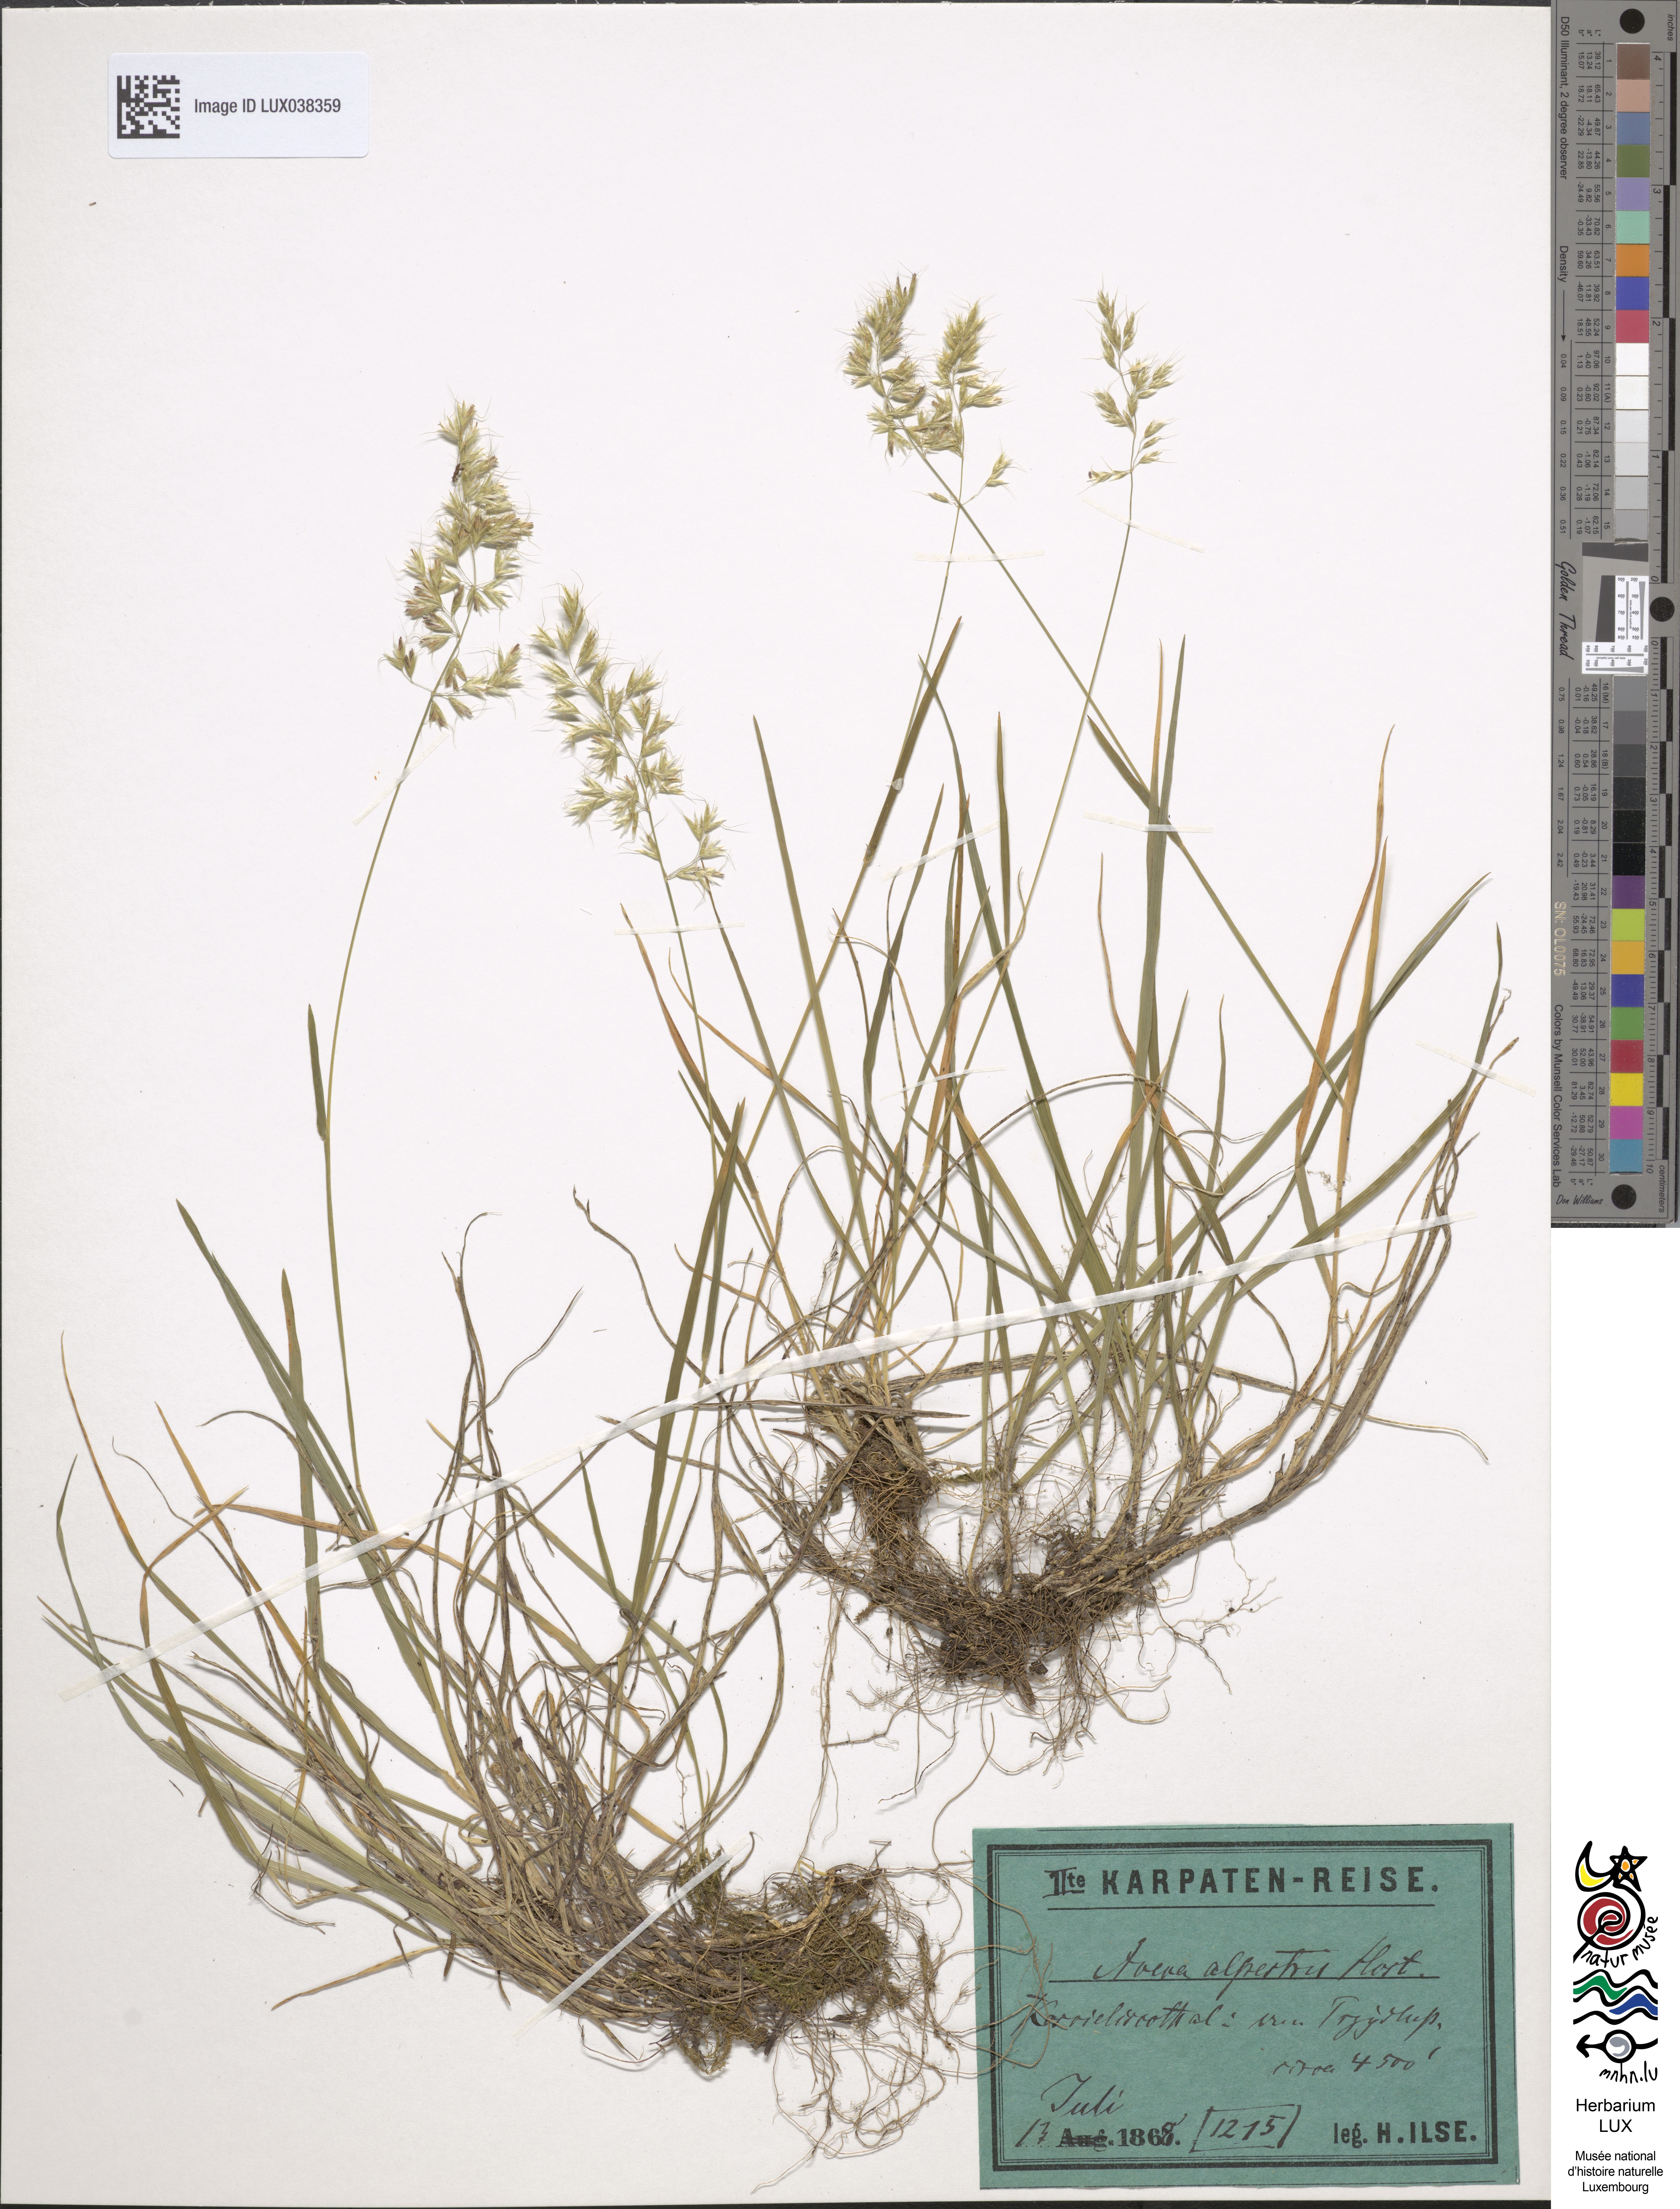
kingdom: Plantae
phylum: Tracheophyta
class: Liliopsida
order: Poales
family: Poaceae
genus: Trisetum
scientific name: Trisetum alpestre
